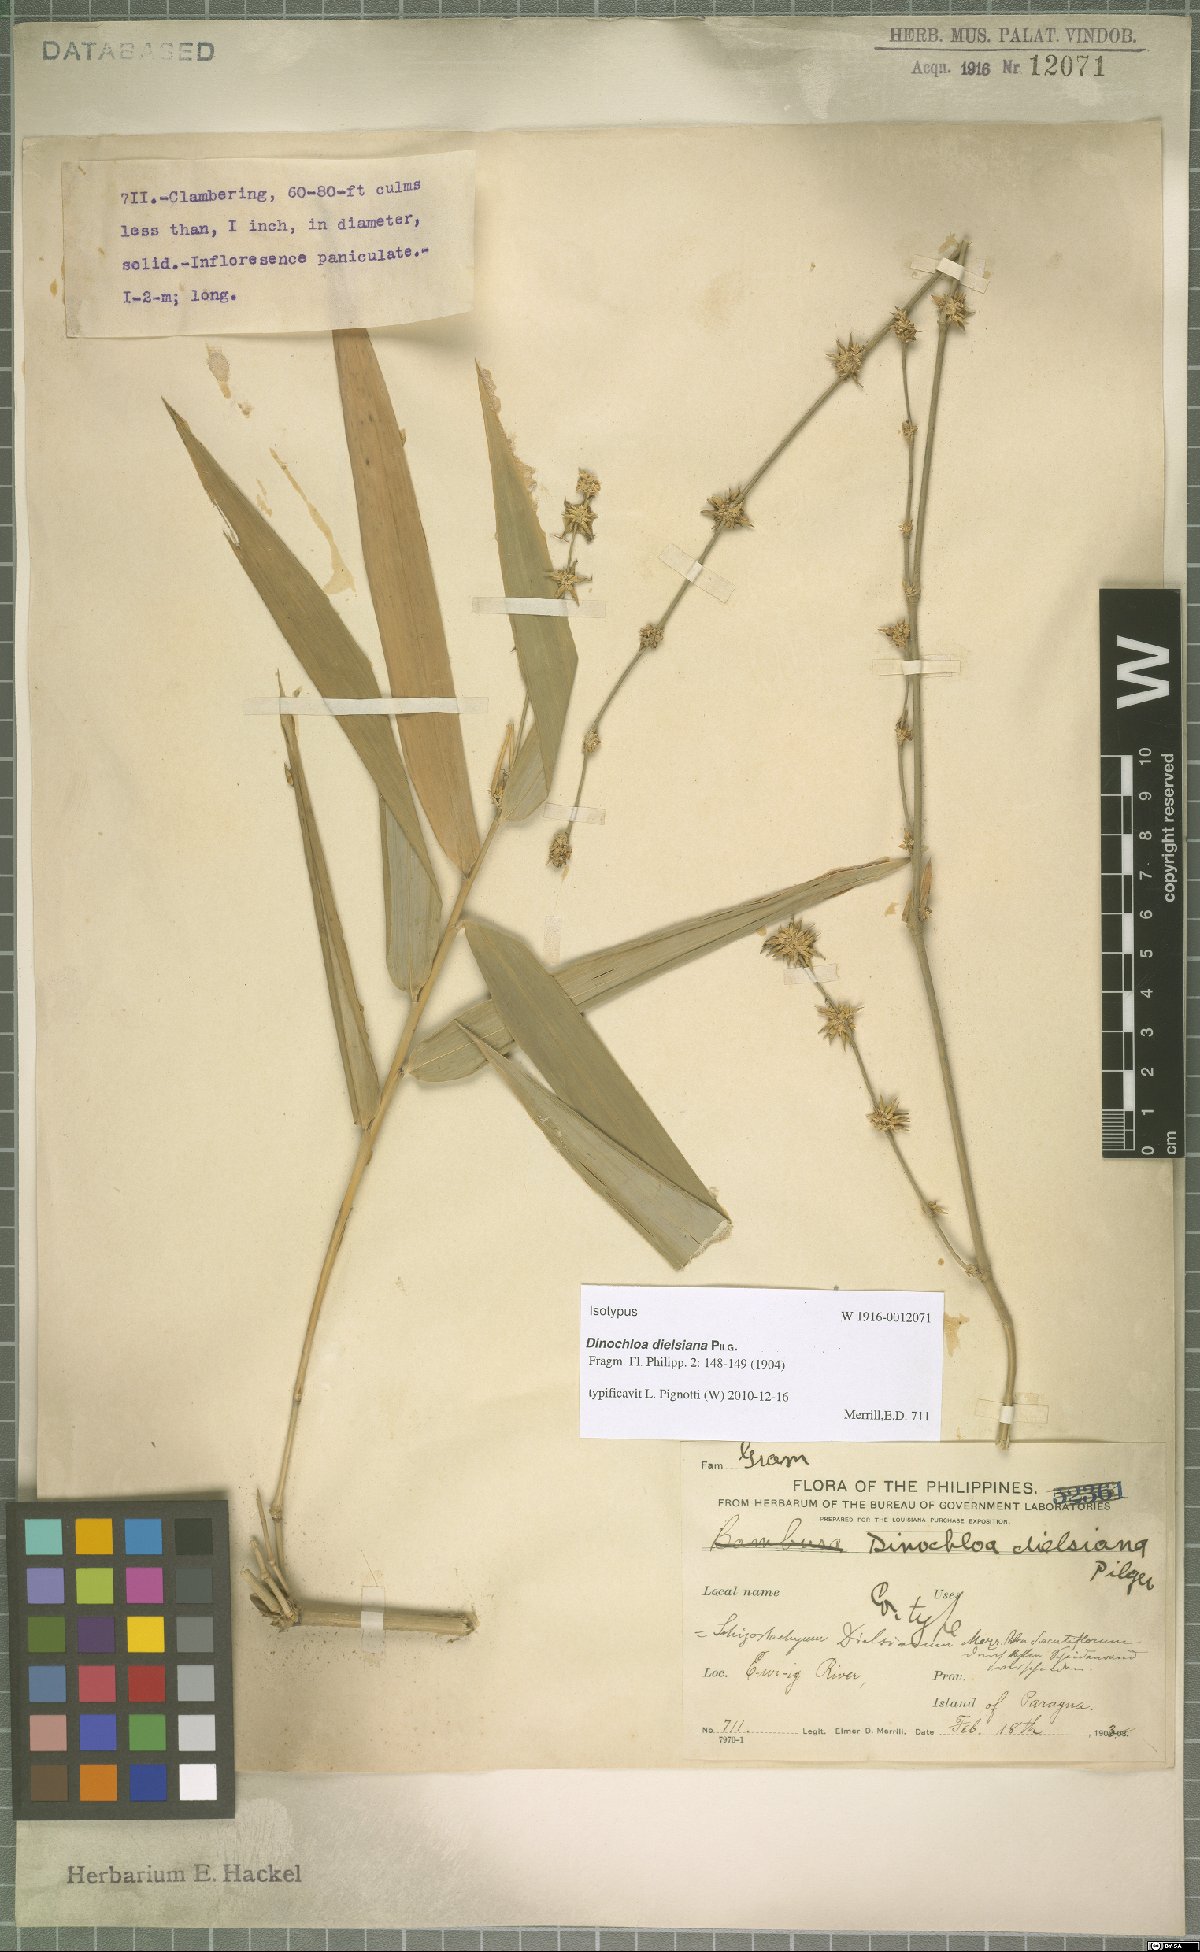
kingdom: Plantae
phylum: Tracheophyta
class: Liliopsida
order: Poales
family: Poaceae
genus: Dinochloa
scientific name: Dinochloa dielsiana
